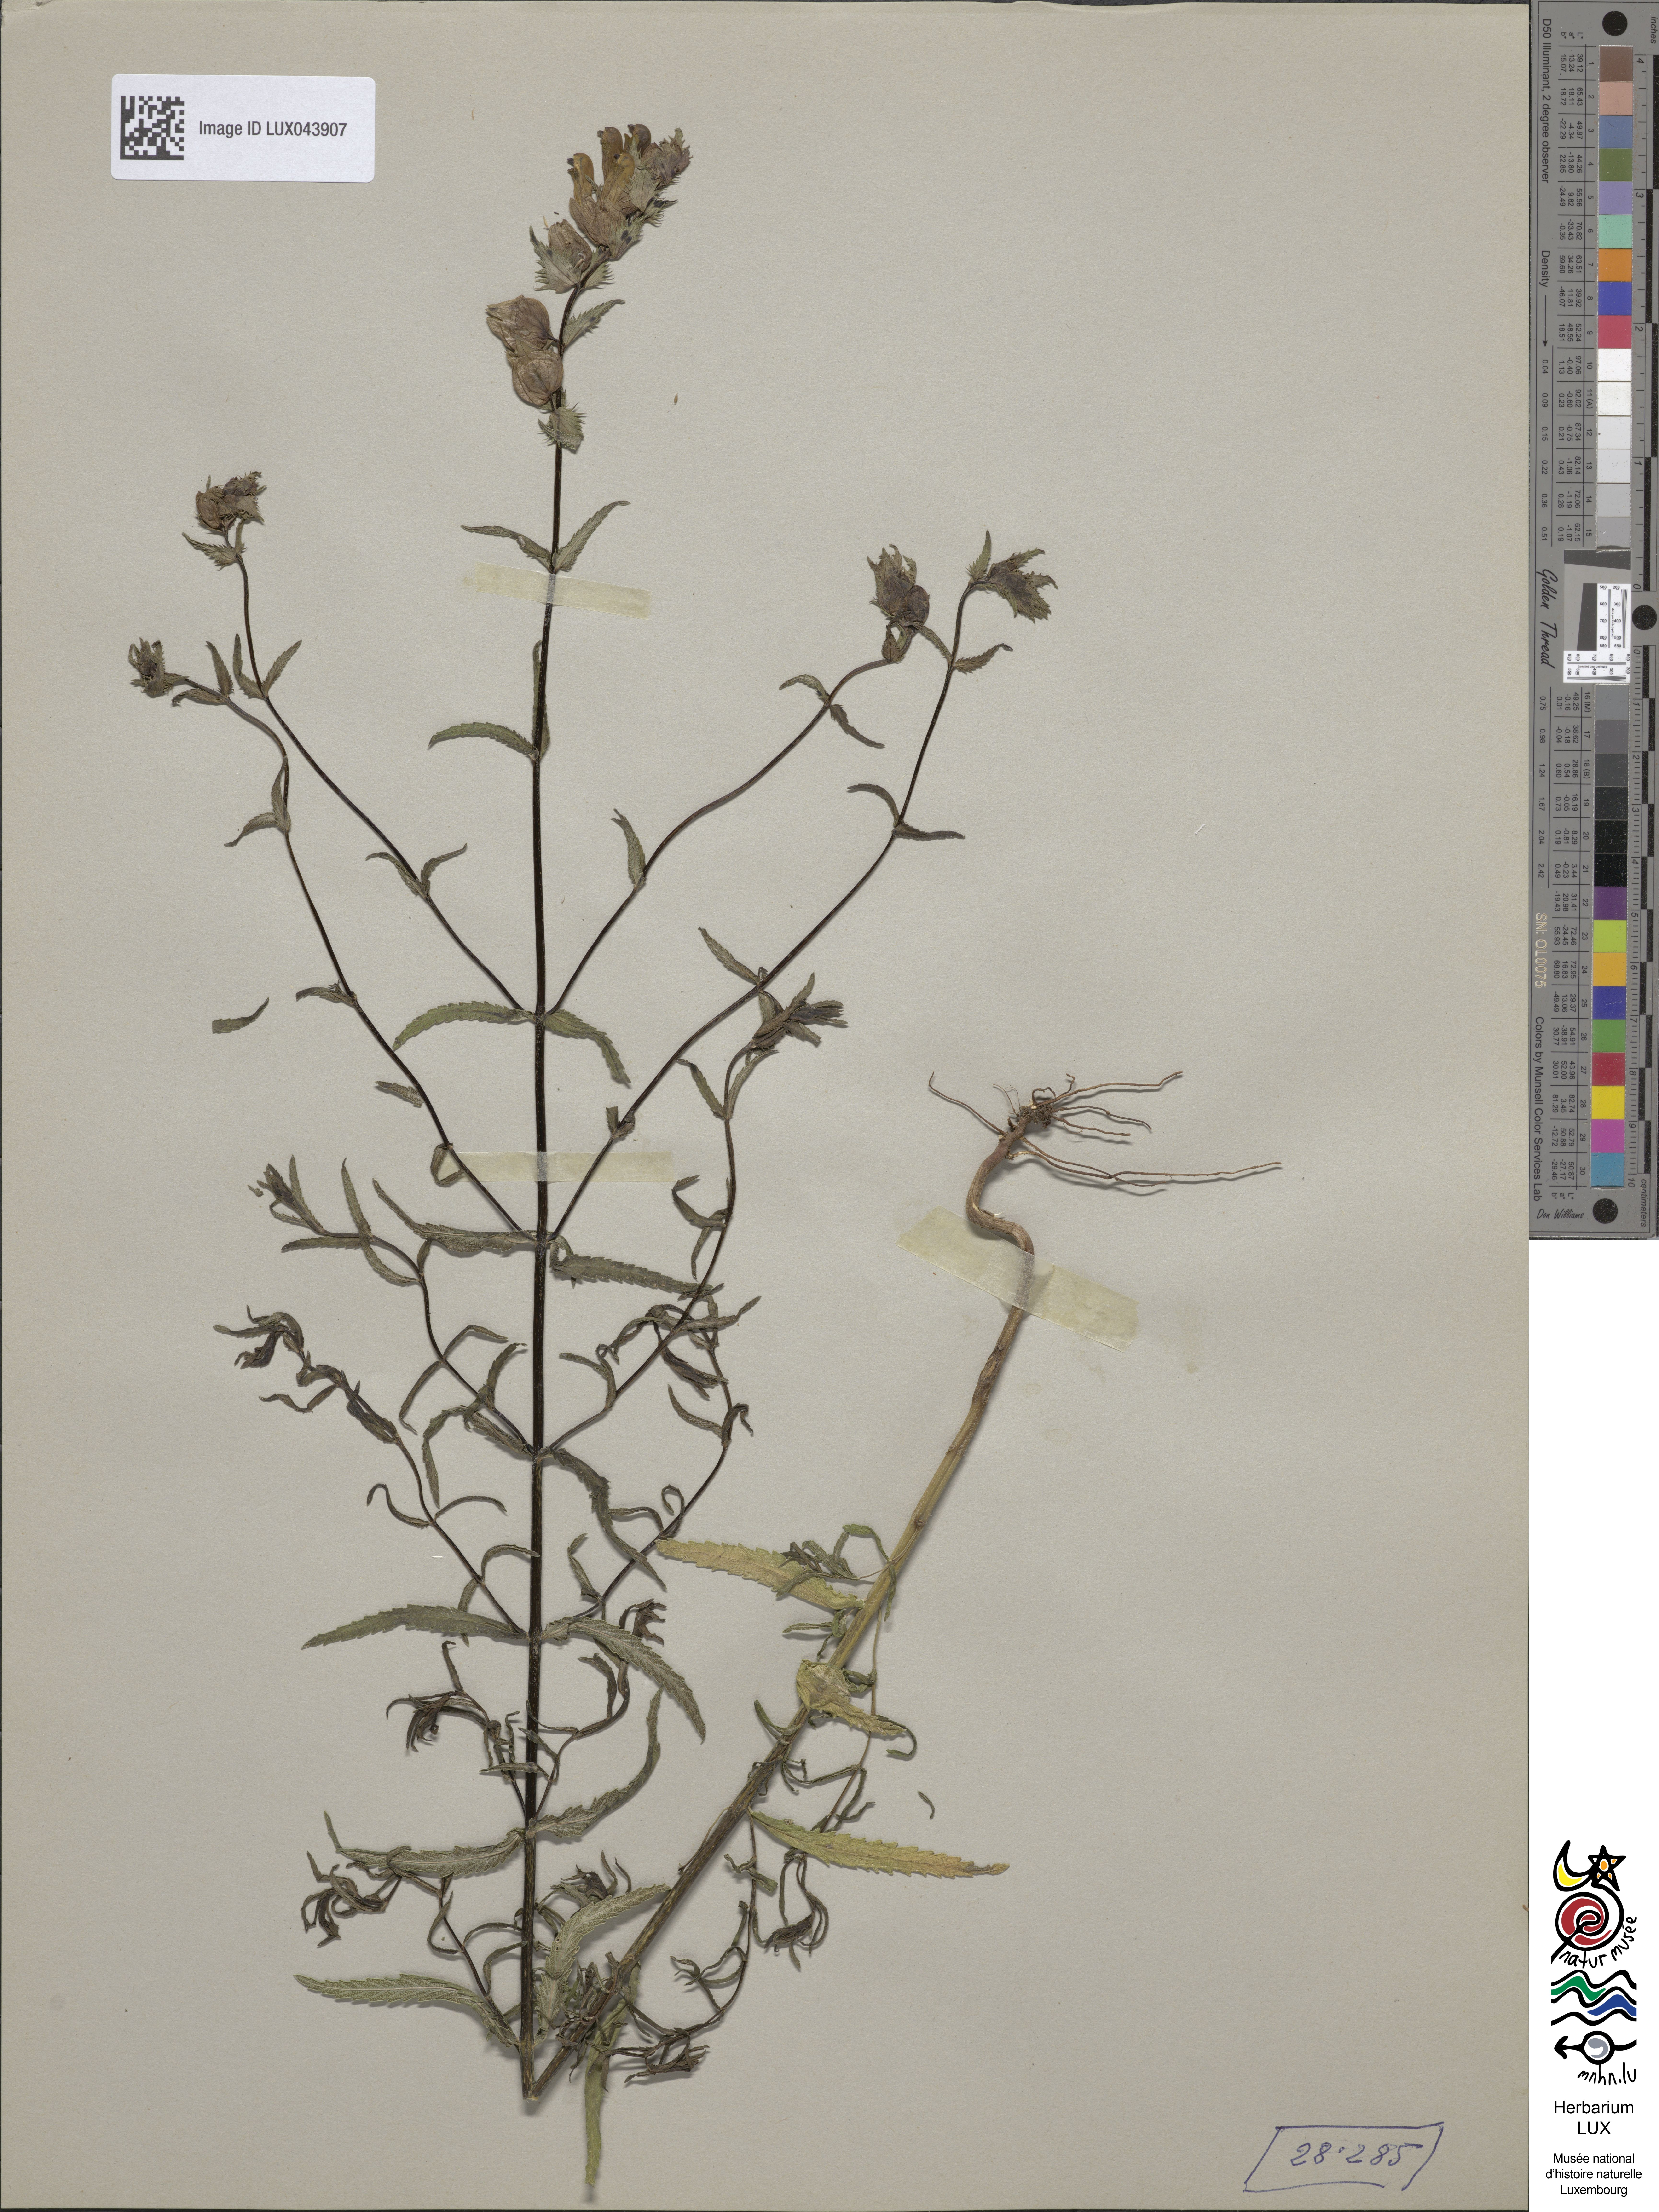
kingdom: Plantae
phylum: Tracheophyta
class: Magnoliopsida
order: Lamiales
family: Orobanchaceae
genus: Rhinanthus
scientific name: Rhinanthus
